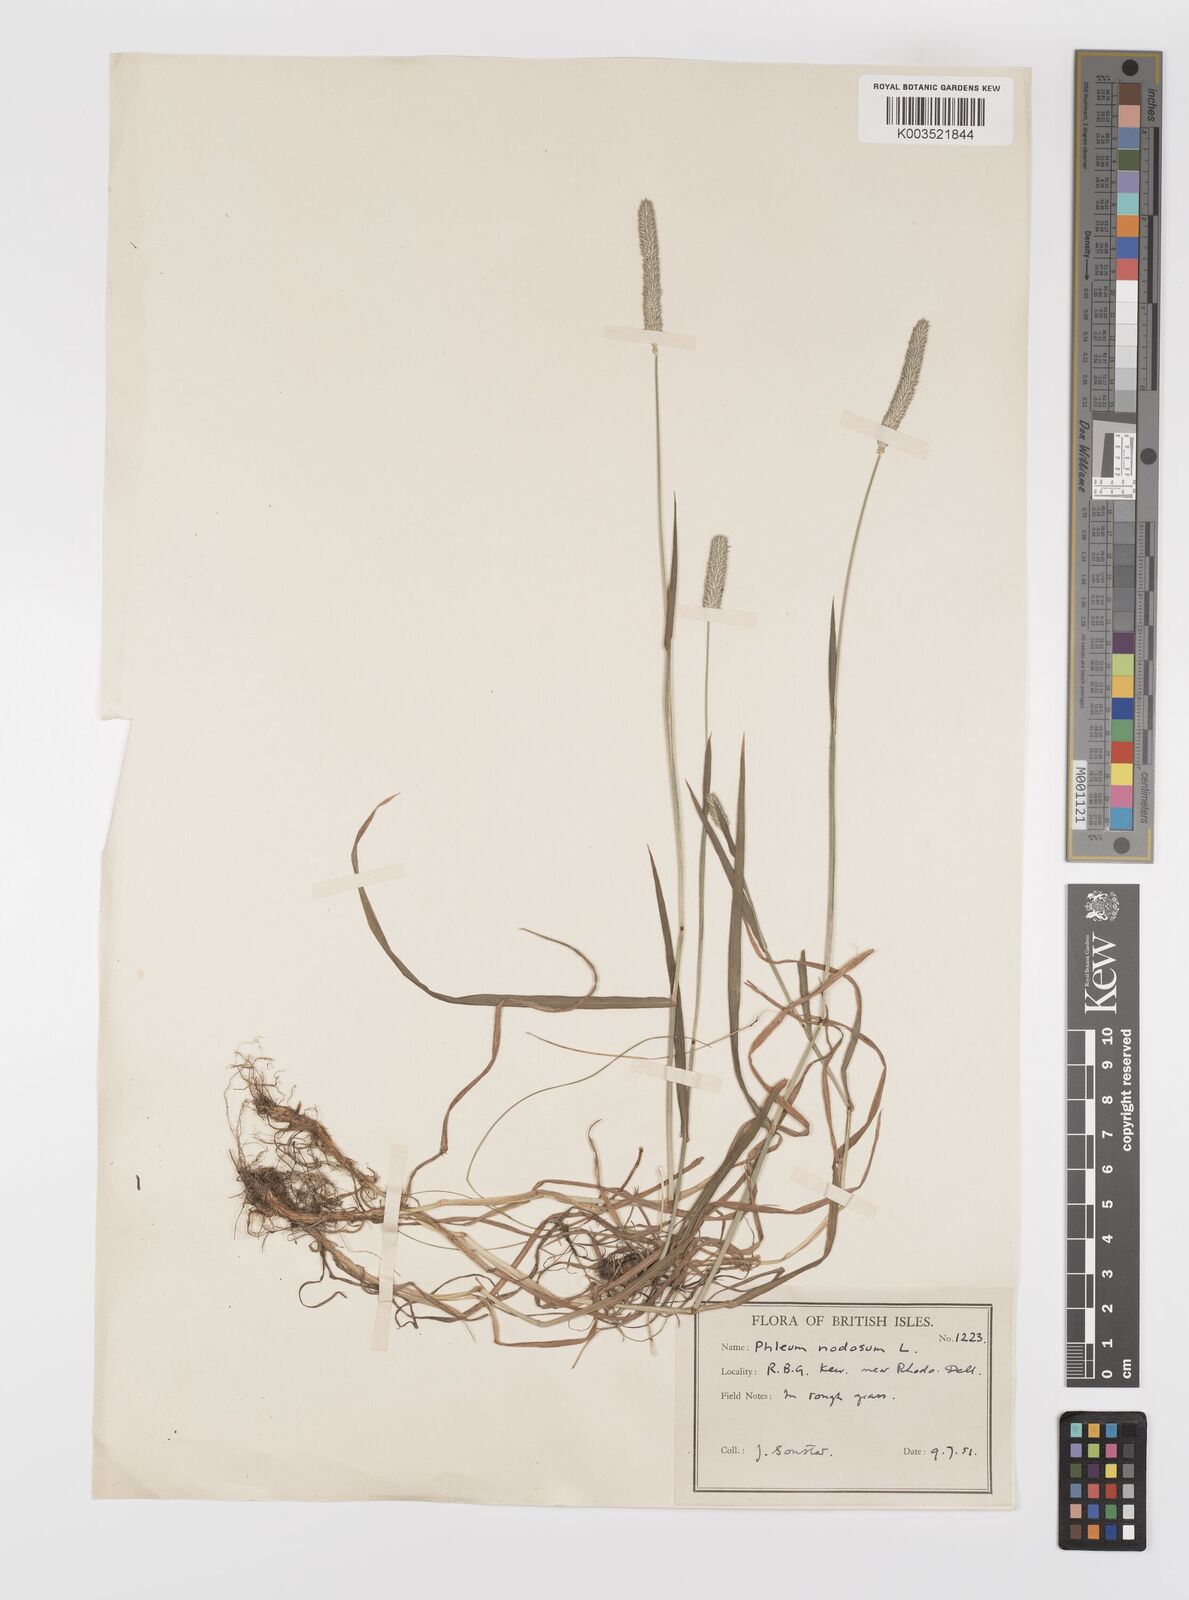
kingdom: Plantae
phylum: Tracheophyta
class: Liliopsida
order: Poales
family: Poaceae
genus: Phleum
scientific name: Phleum bertolonii
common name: Smaller cat's-tail
